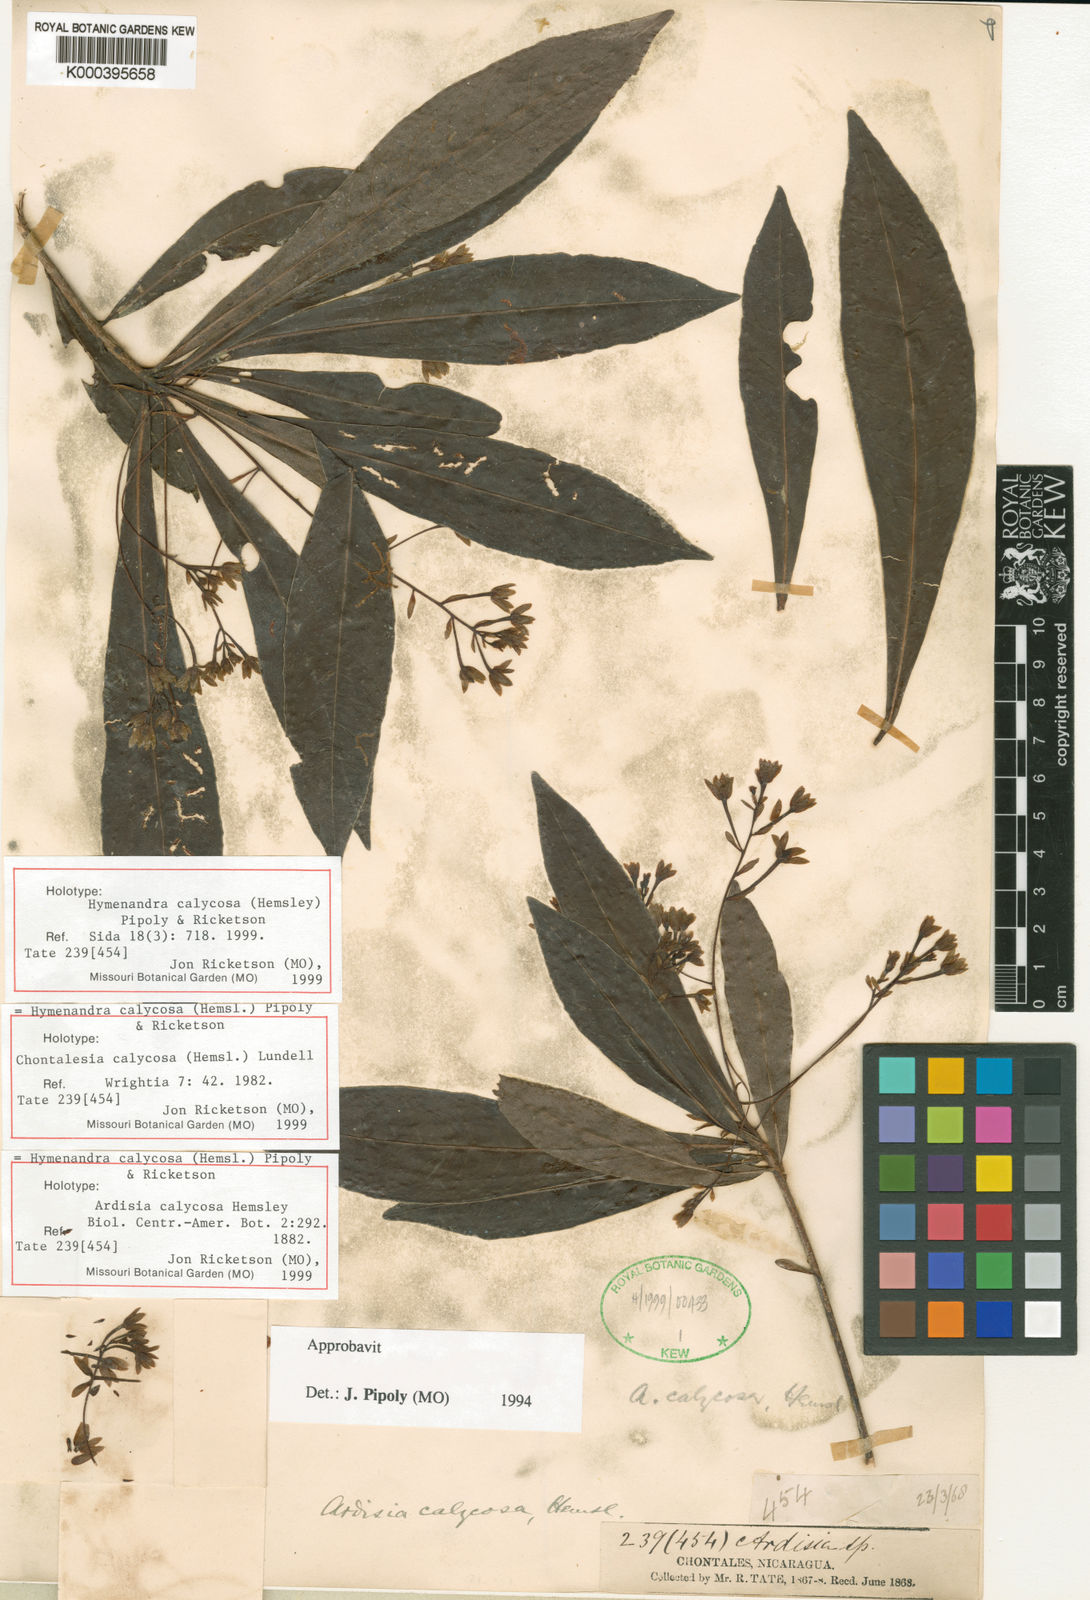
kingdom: Plantae
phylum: Tracheophyta
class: Magnoliopsida
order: Ericales
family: Primulaceae
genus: Hymenandra
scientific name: Hymenandra calycosa
